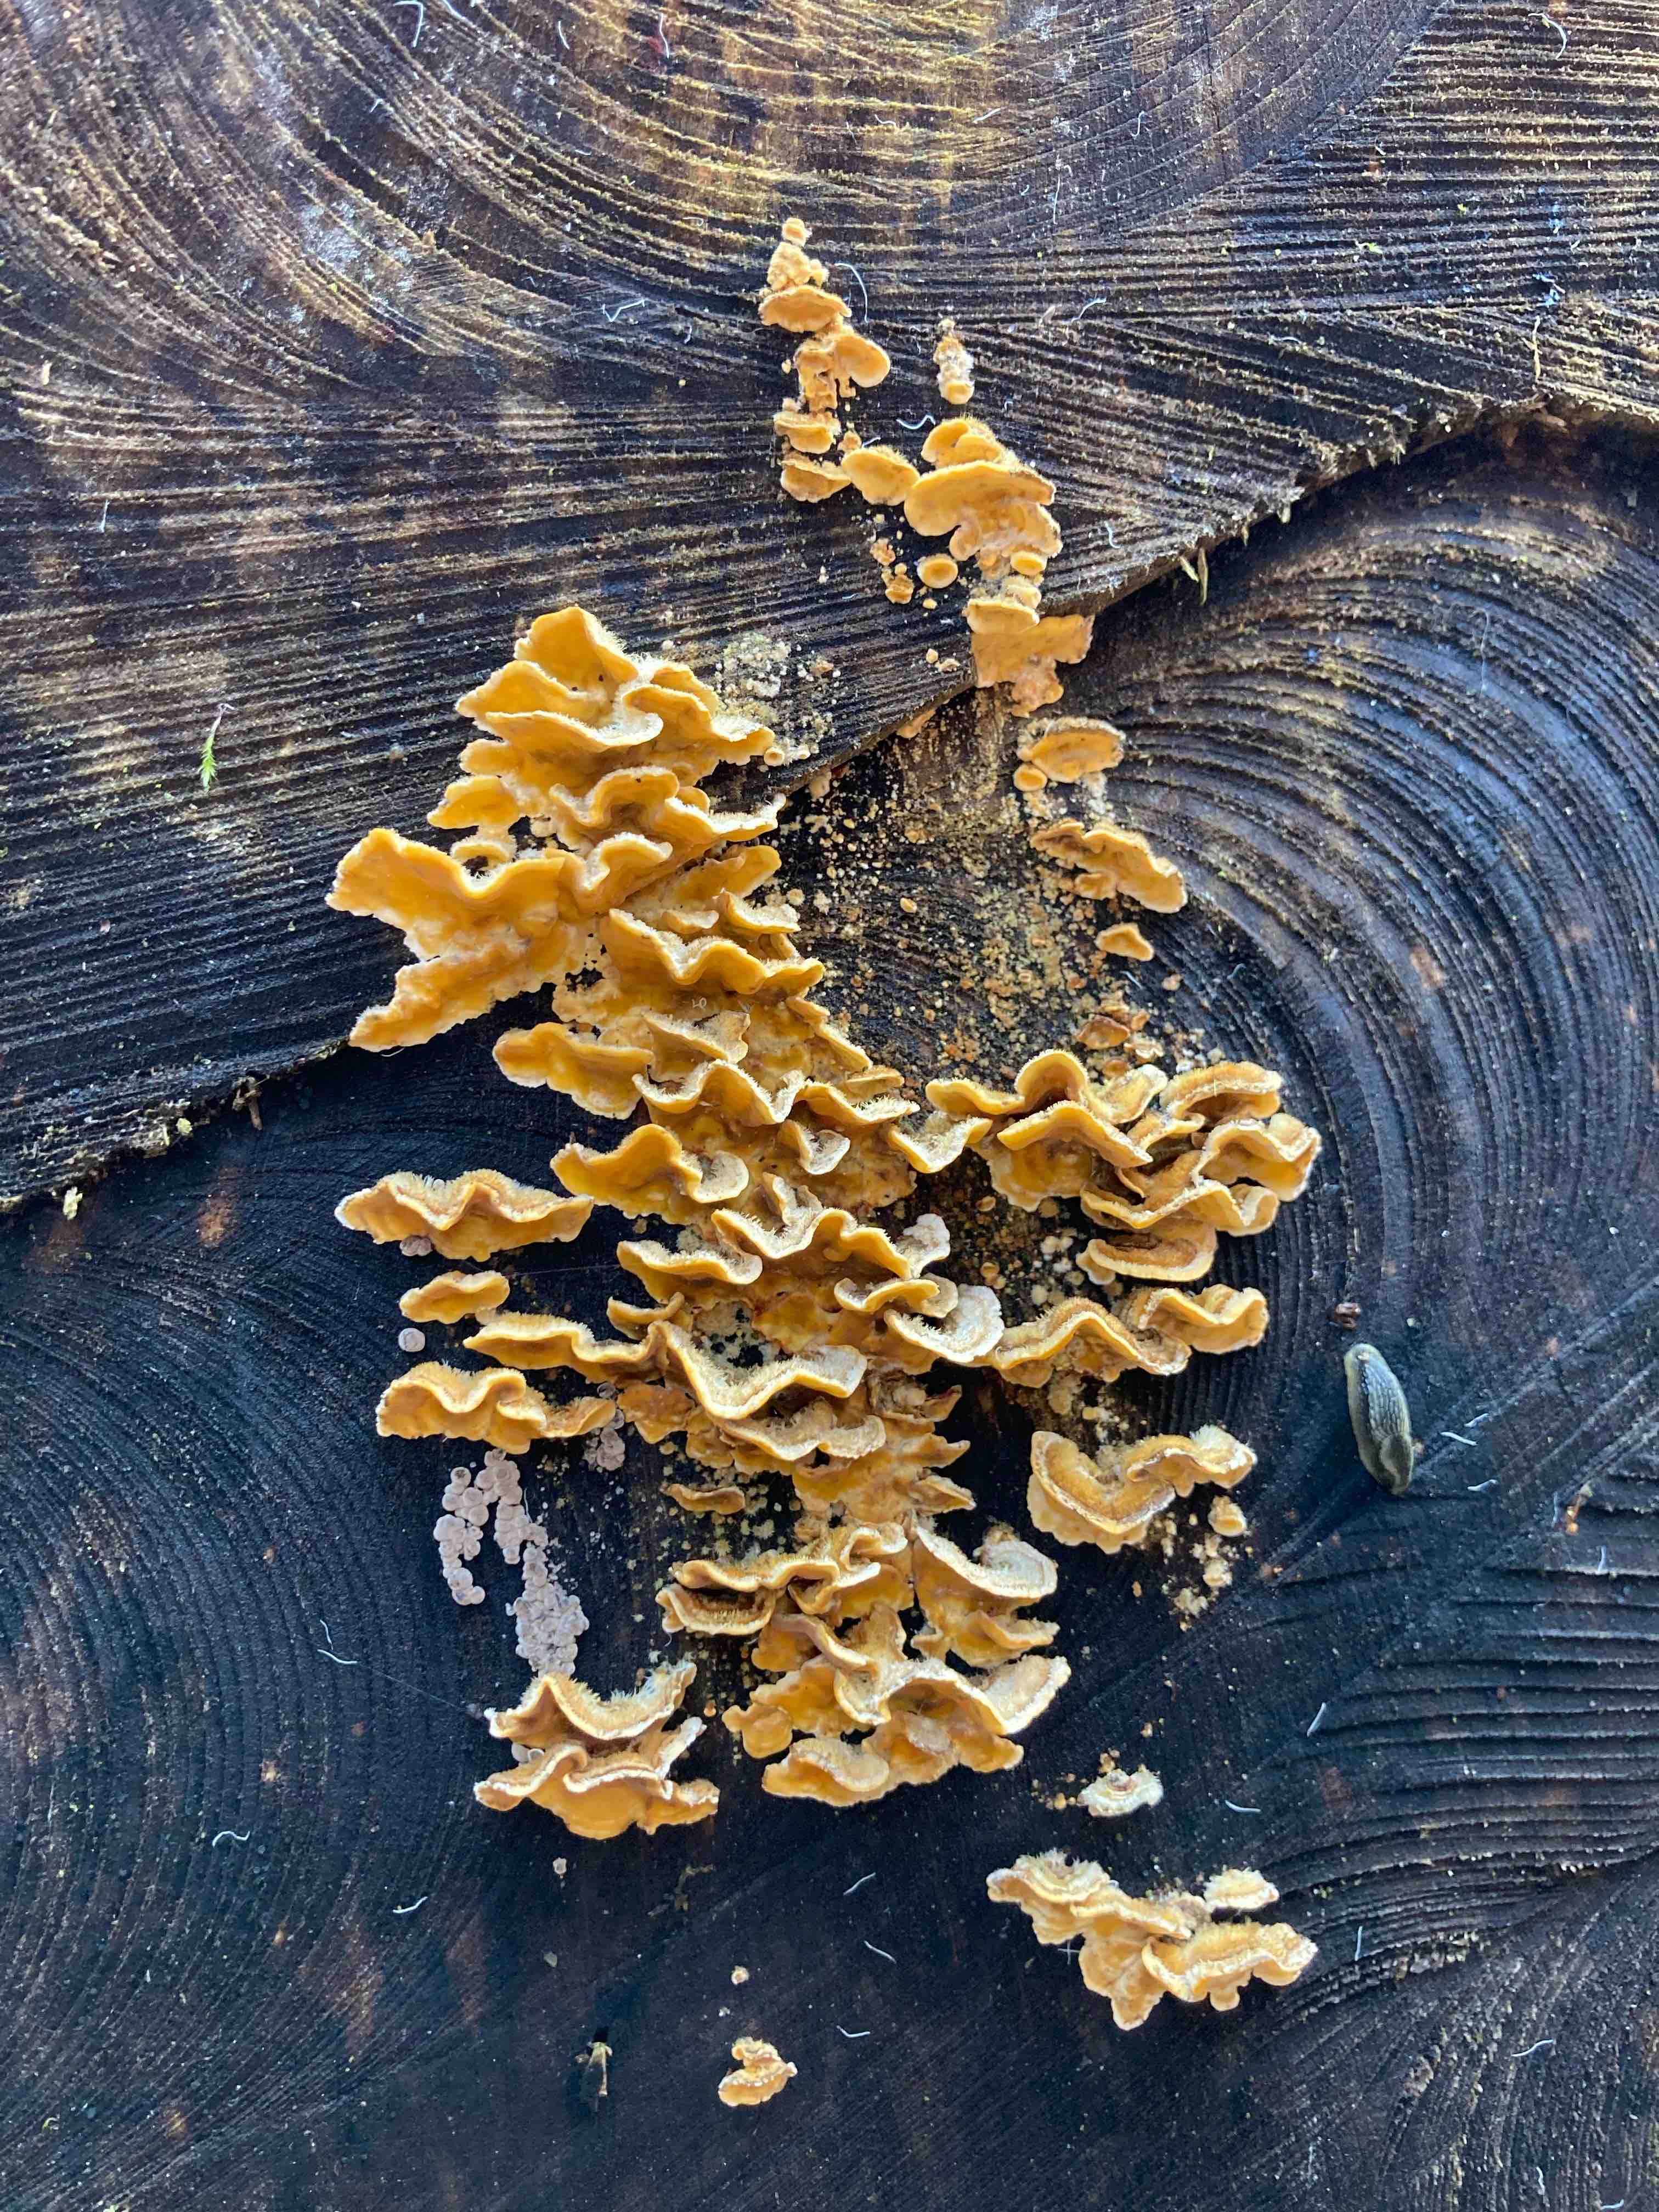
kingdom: Fungi
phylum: Basidiomycota
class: Agaricomycetes
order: Russulales
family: Stereaceae
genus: Stereum
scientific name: Stereum hirsutum
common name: håret lædersvamp
